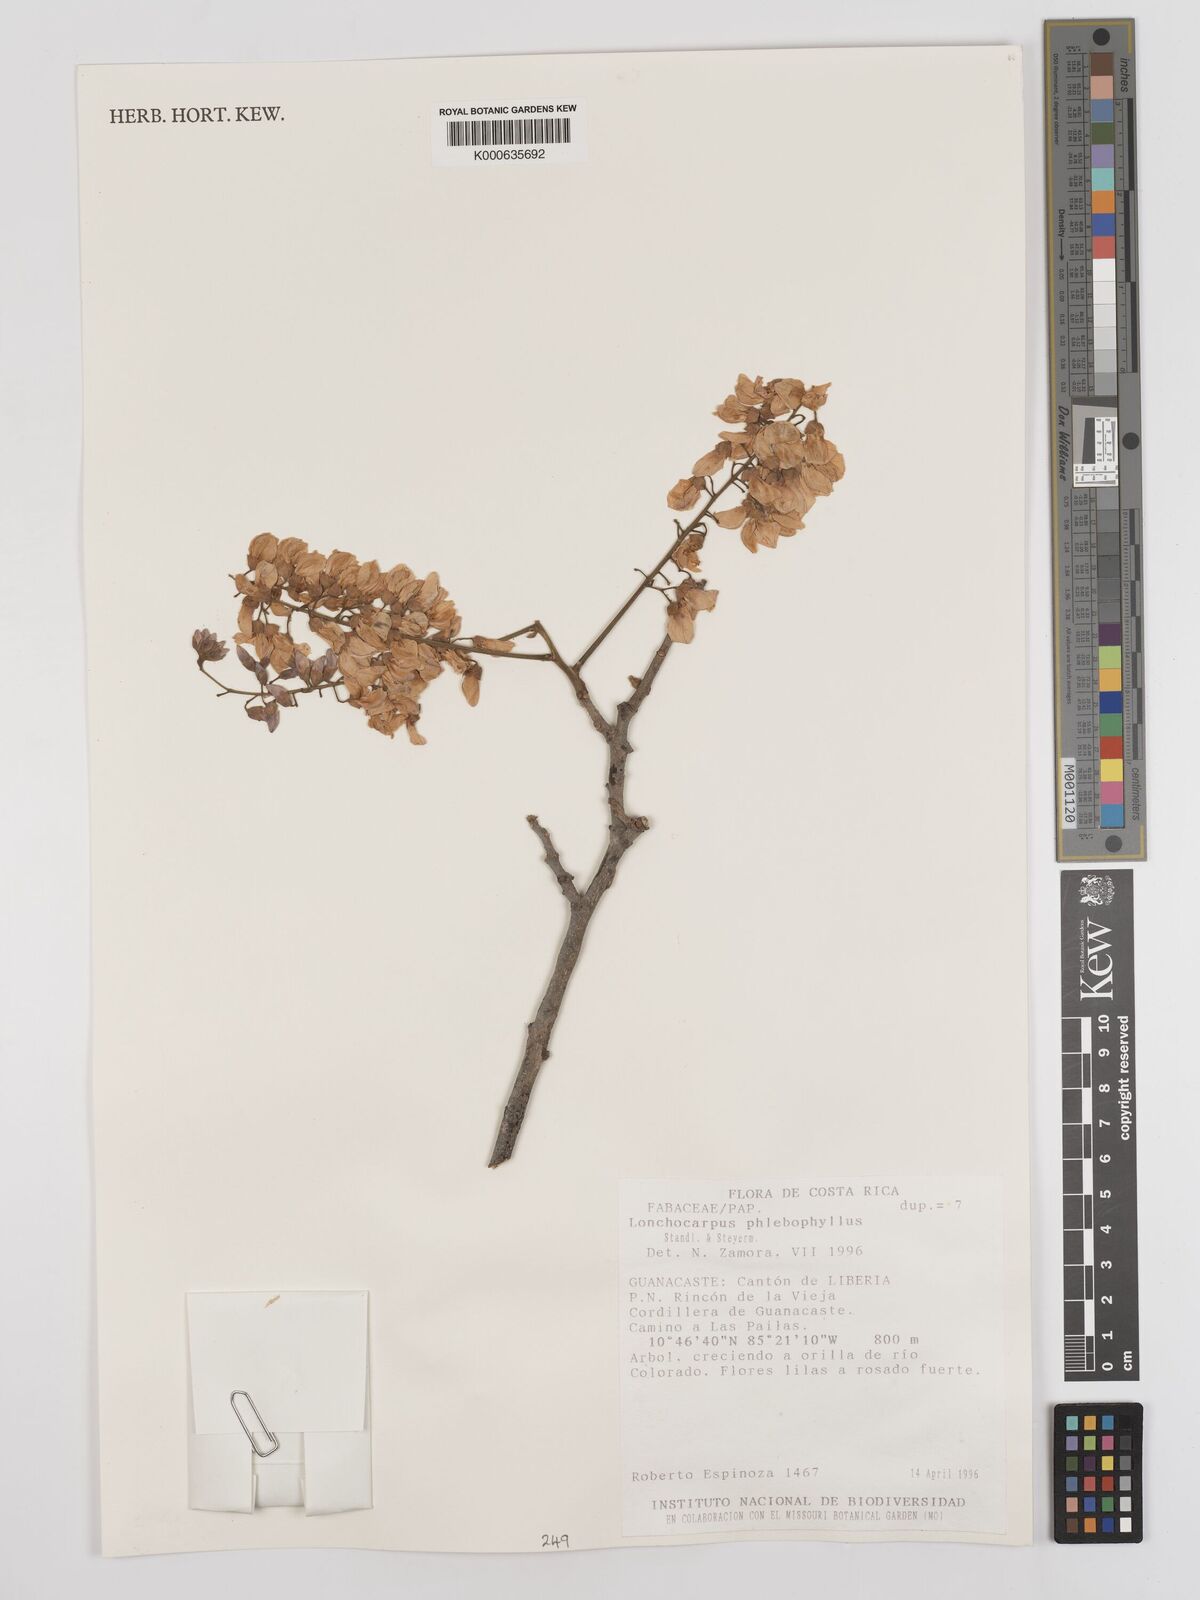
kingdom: Plantae
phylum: Tracheophyta
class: Magnoliopsida
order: Fabales
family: Fabaceae
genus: Lonchocarpus
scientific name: Lonchocarpus phlebophyllus
